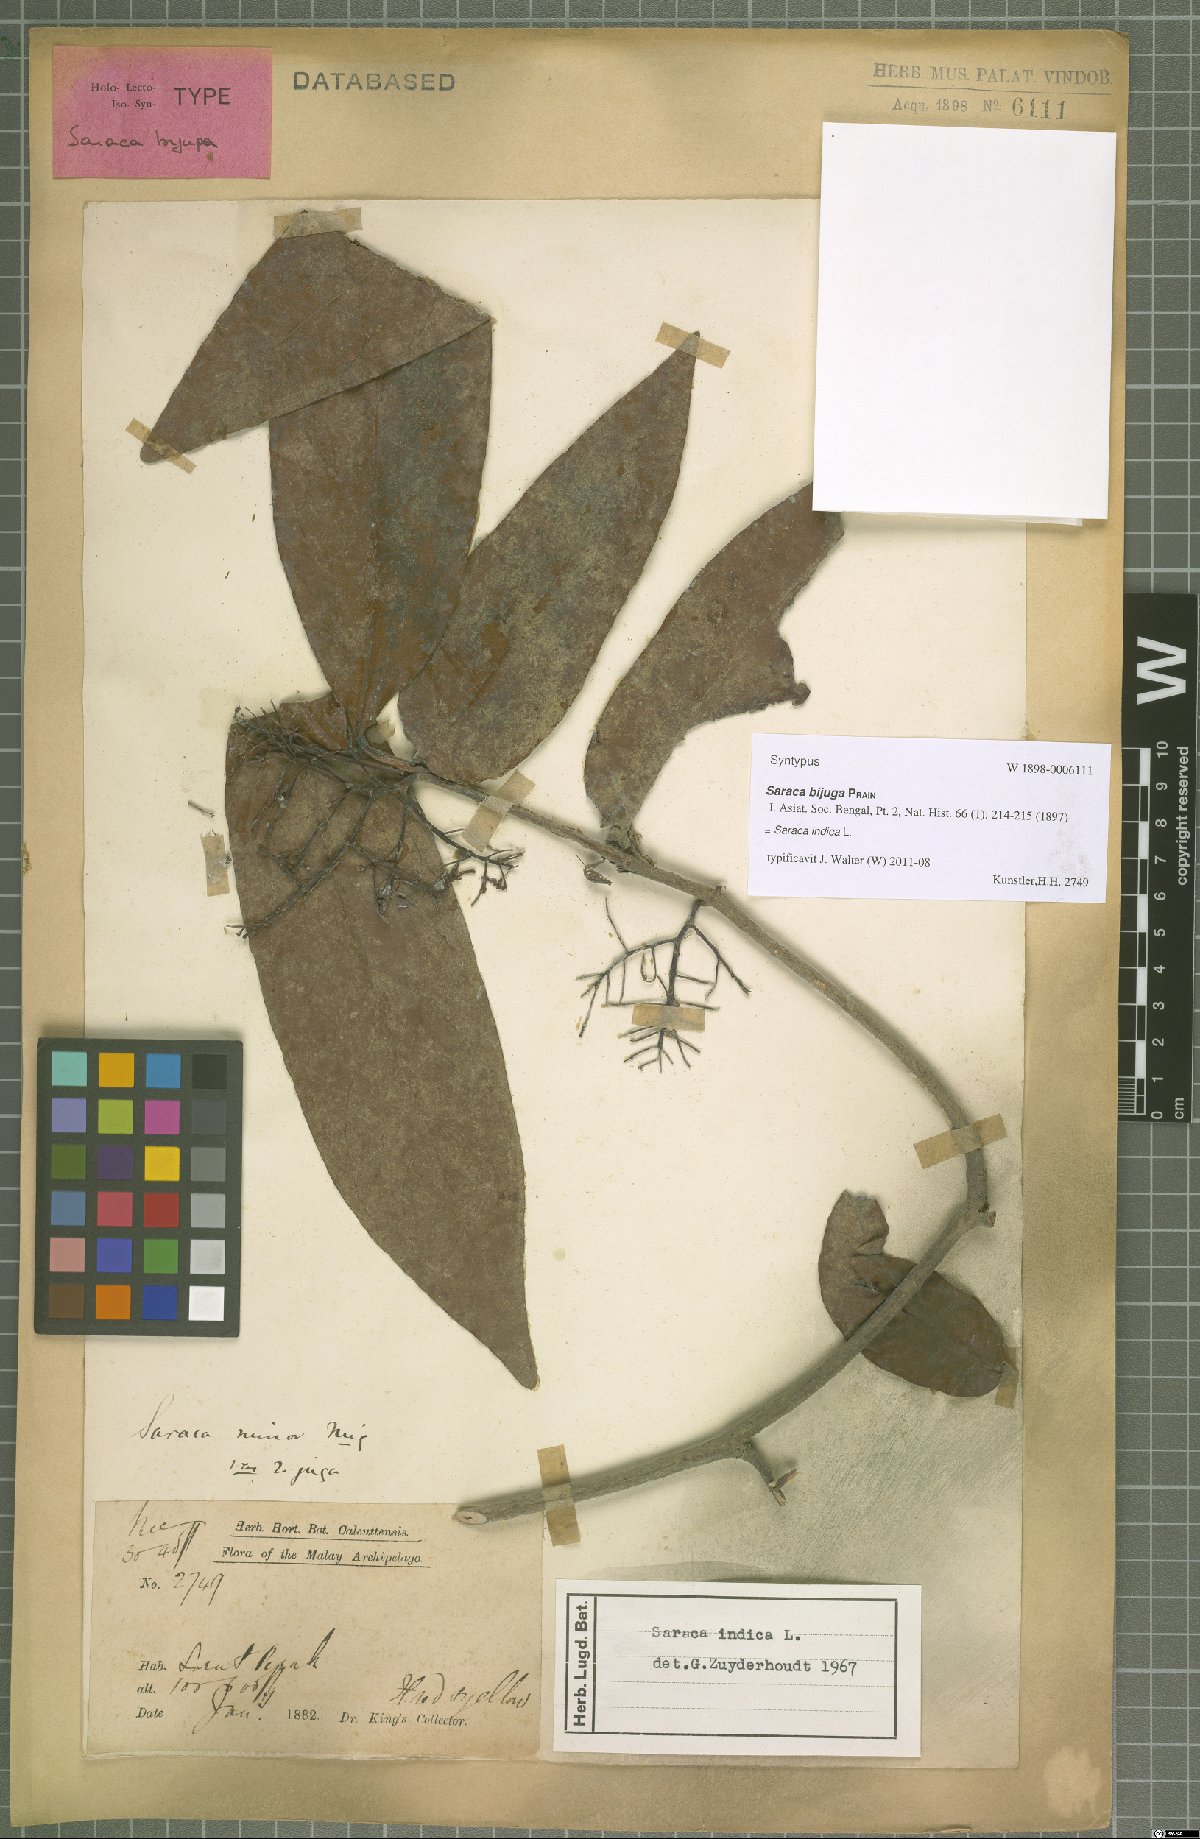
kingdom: Plantae
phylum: Tracheophyta
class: Magnoliopsida
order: Fabales
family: Fabaceae
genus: Saraca
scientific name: Saraca indica
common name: Asoka-tree
